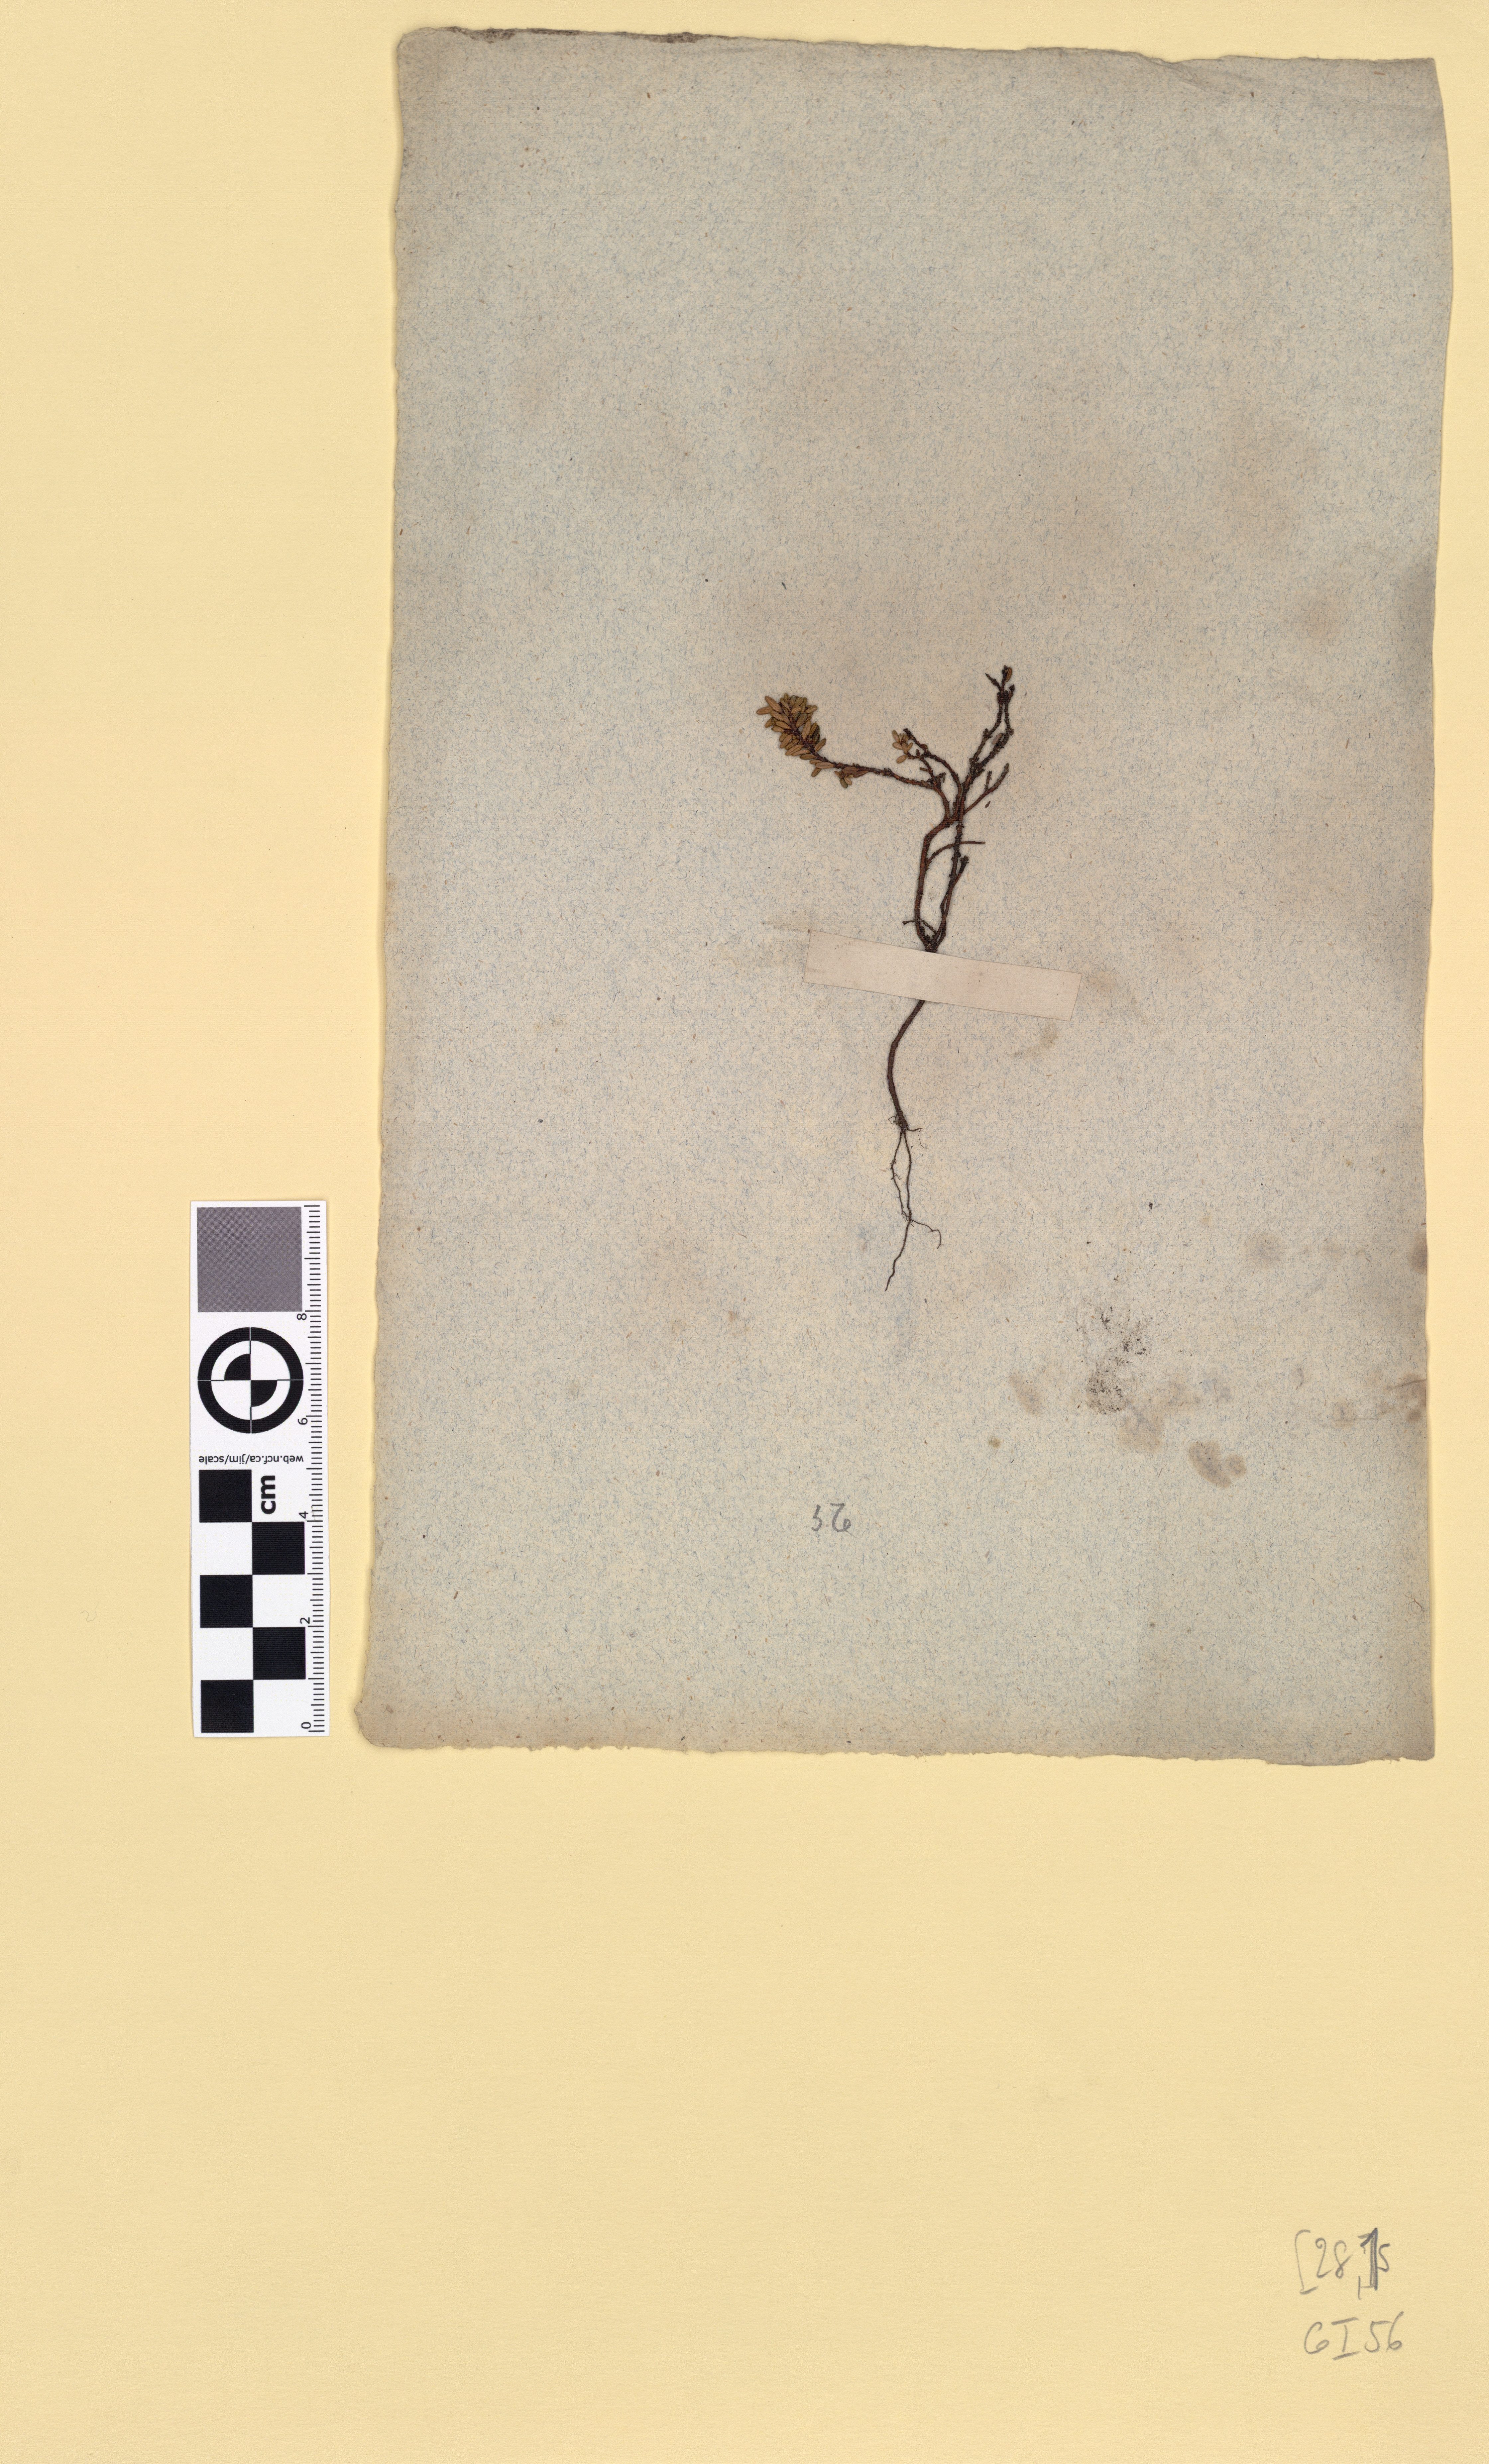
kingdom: Plantae
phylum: Tracheophyta
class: Magnoliopsida
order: Ericales
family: Ericaceae
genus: Phyllodoce
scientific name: Phyllodoce caerulea
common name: Blue heath
